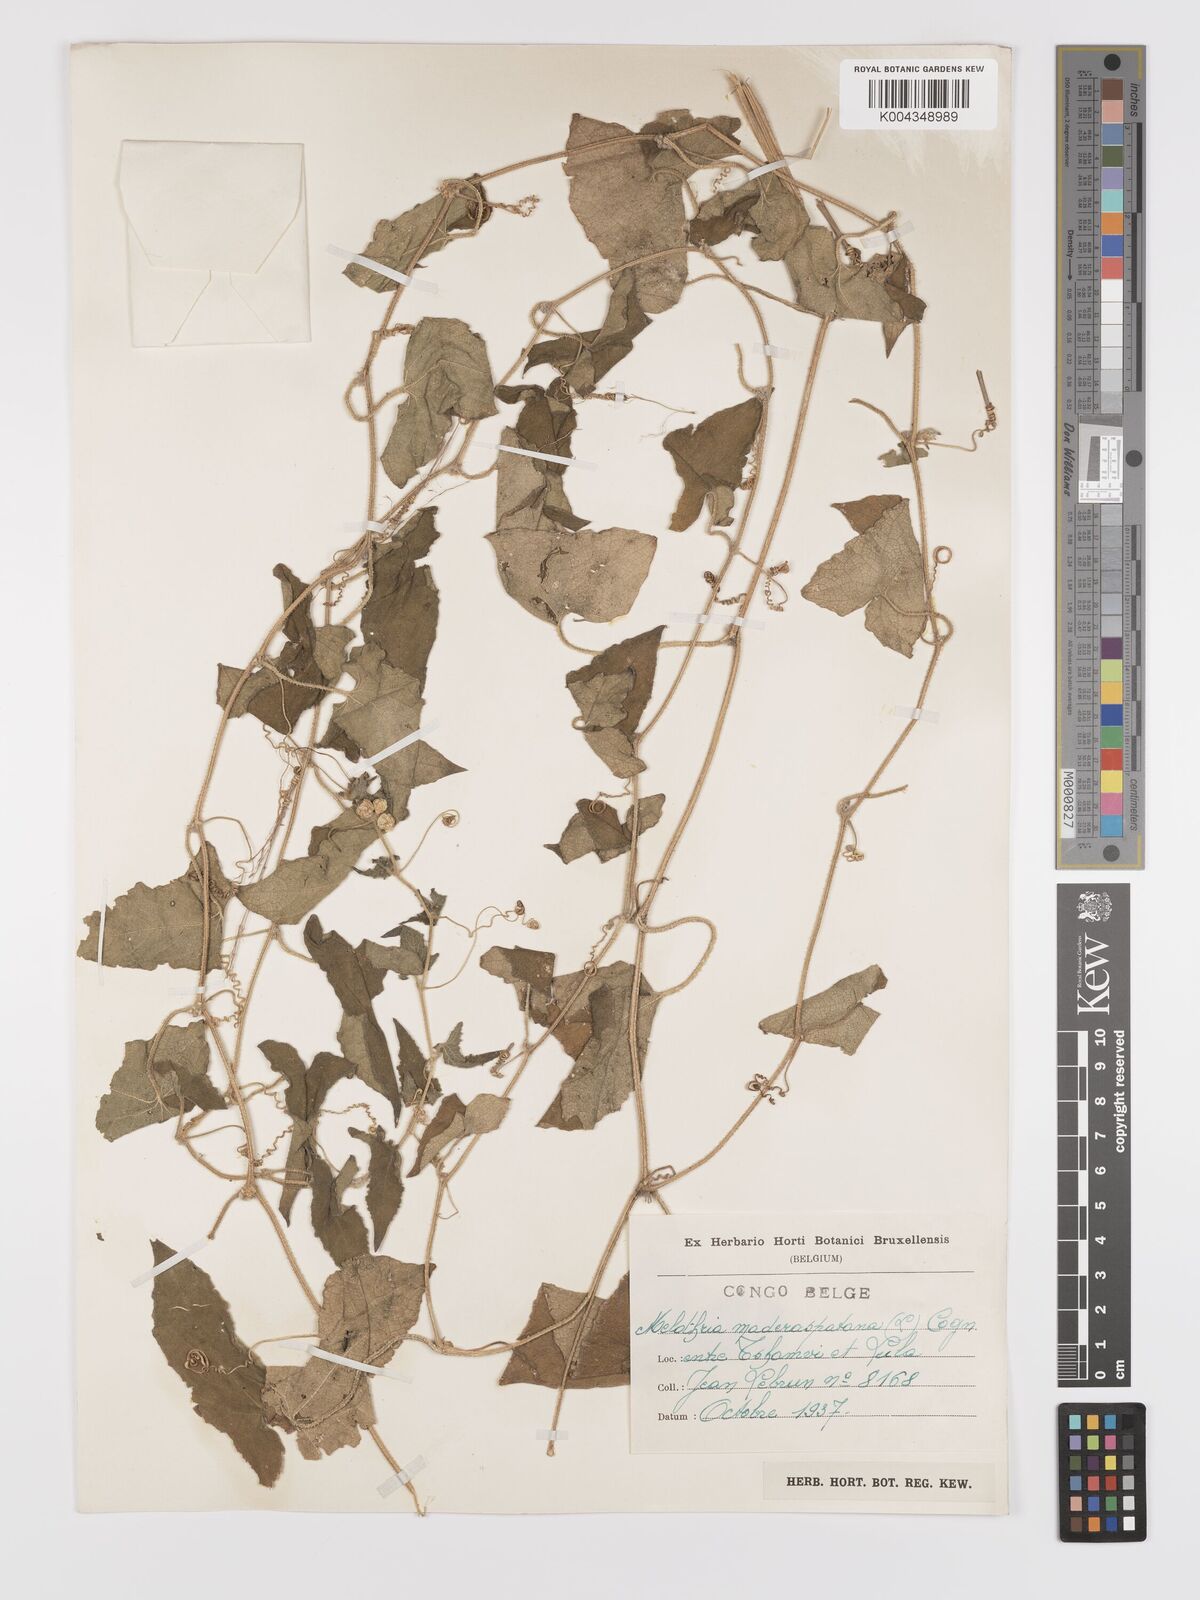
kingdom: Plantae
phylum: Tracheophyta
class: Magnoliopsida
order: Cucurbitales
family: Cucurbitaceae
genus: Cucumis
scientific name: Cucumis maderaspatanus
